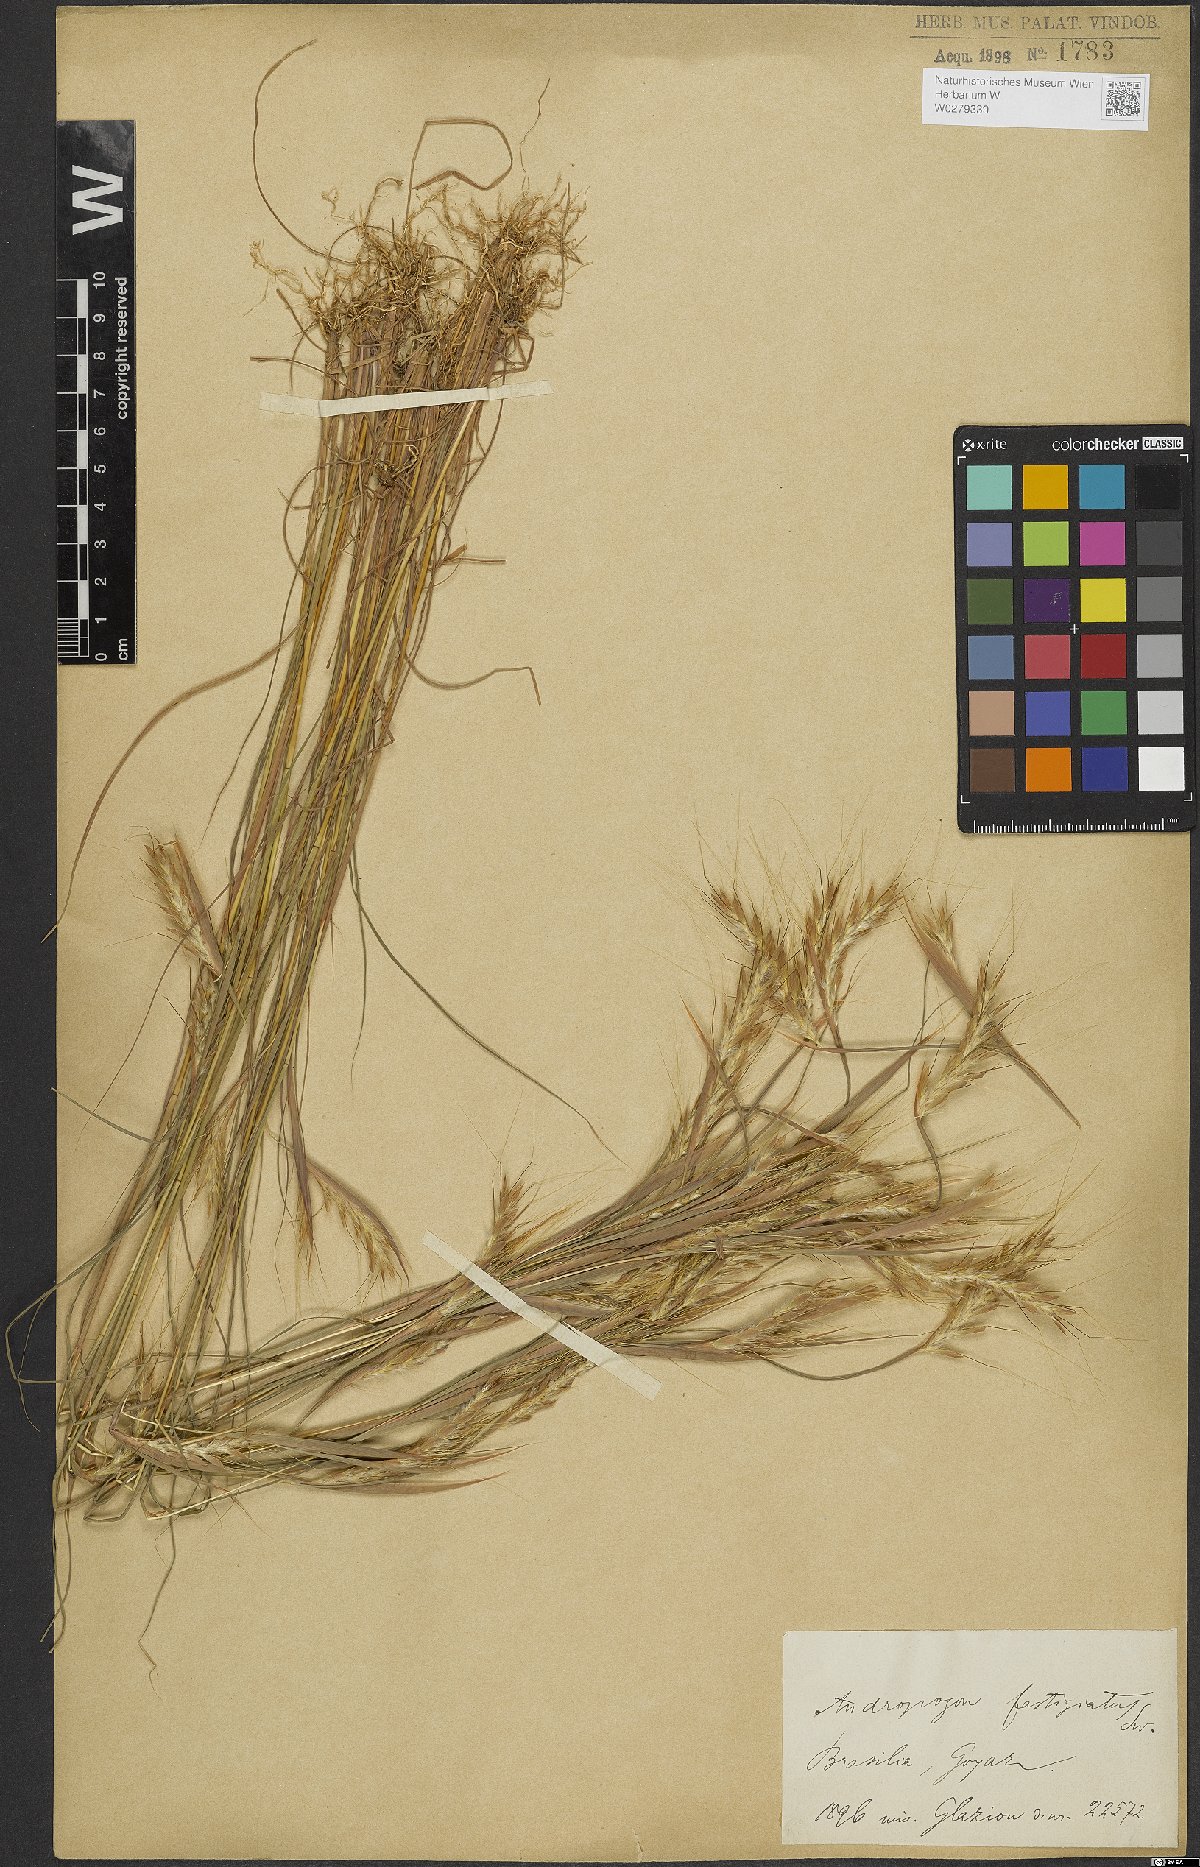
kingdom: Plantae
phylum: Tracheophyta
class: Liliopsida
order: Poales
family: Poaceae
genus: Diectomis
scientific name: Diectomis fastigiata
